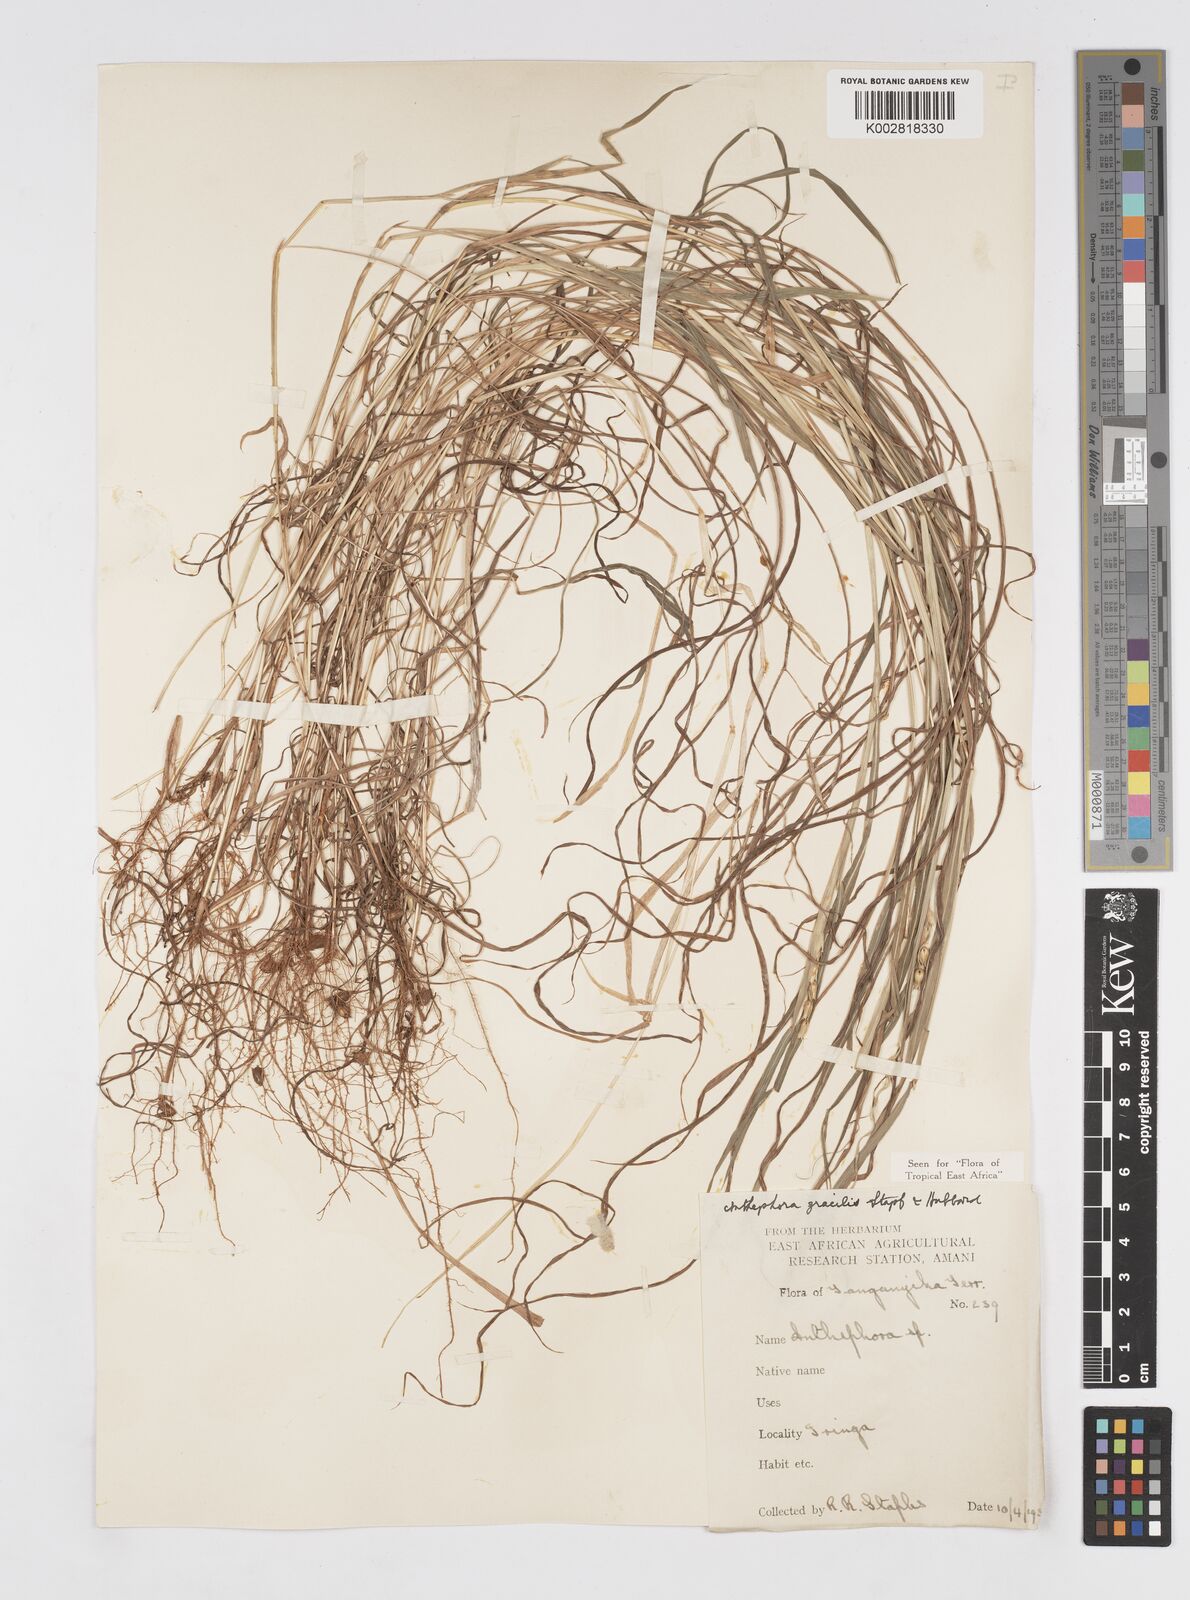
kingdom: Plantae
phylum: Tracheophyta
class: Liliopsida
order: Poales
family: Poaceae
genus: Anthephora
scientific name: Anthephora truncata
